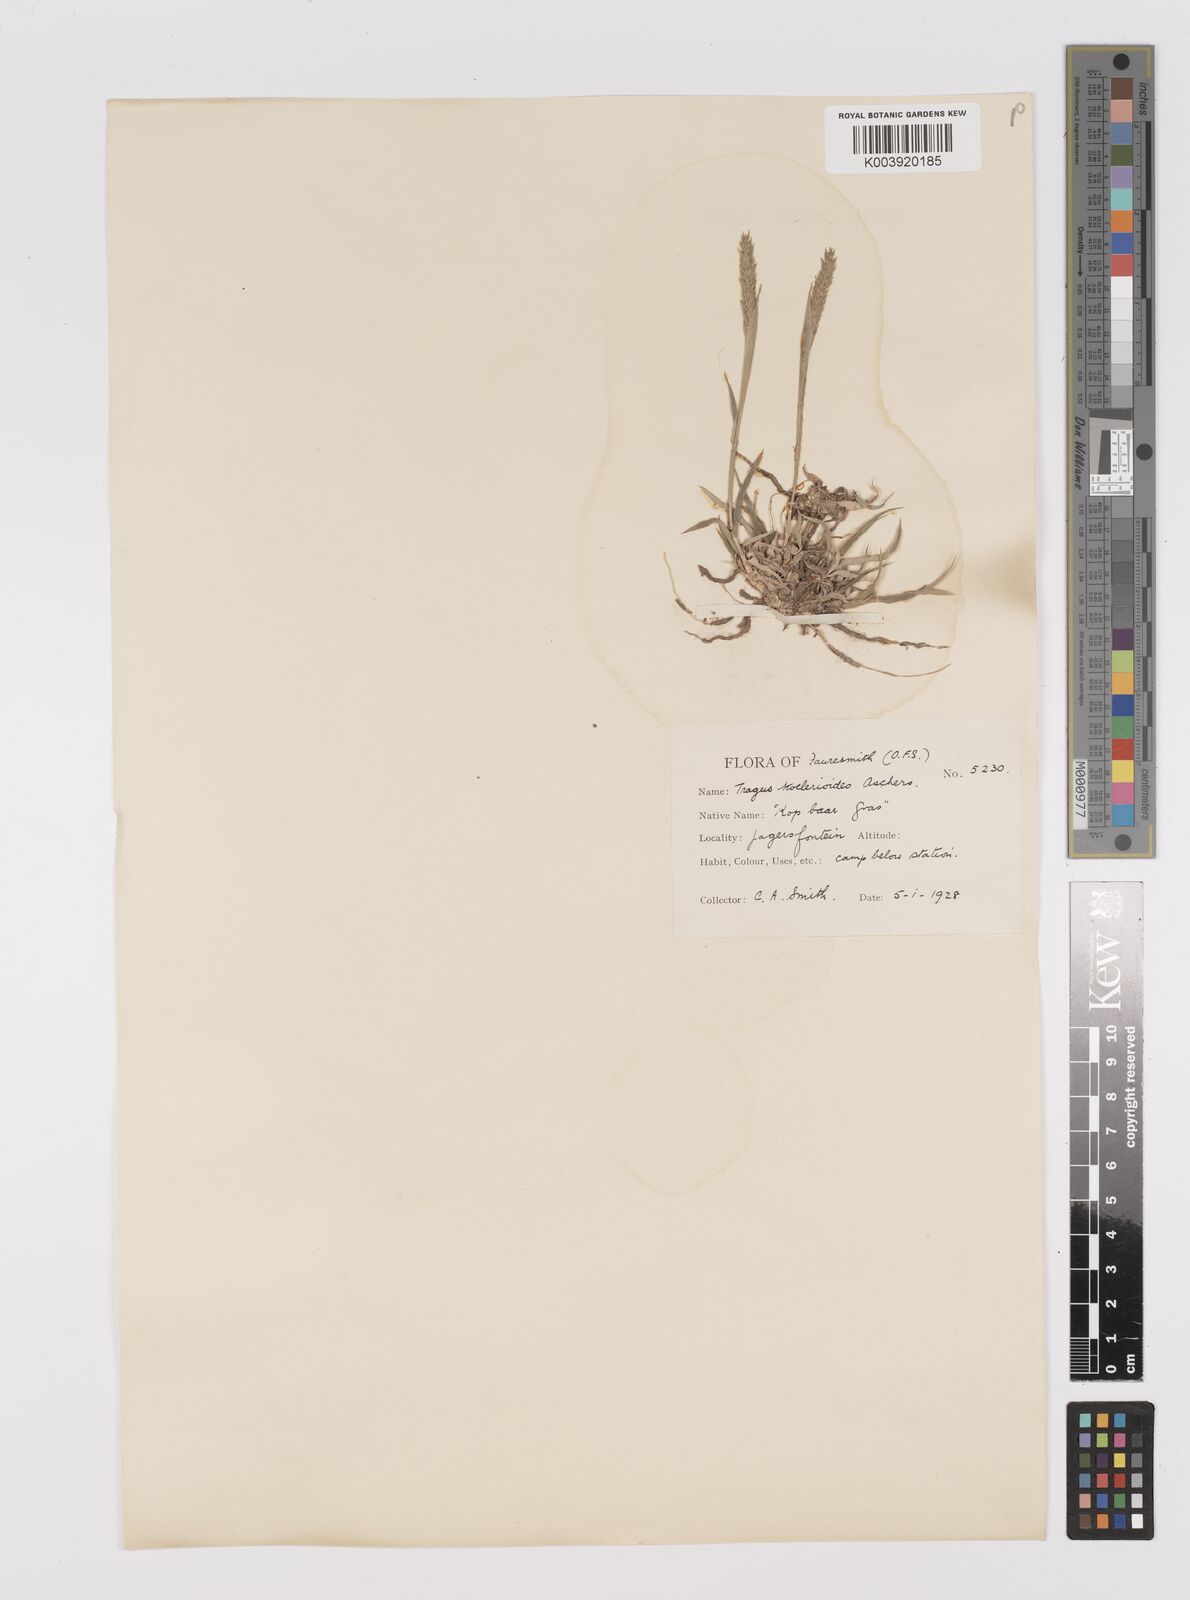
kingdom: Plantae
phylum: Tracheophyta
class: Liliopsida
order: Poales
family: Poaceae
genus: Tragus
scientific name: Tragus koelerioides
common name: Creeping carrot-seed grass
